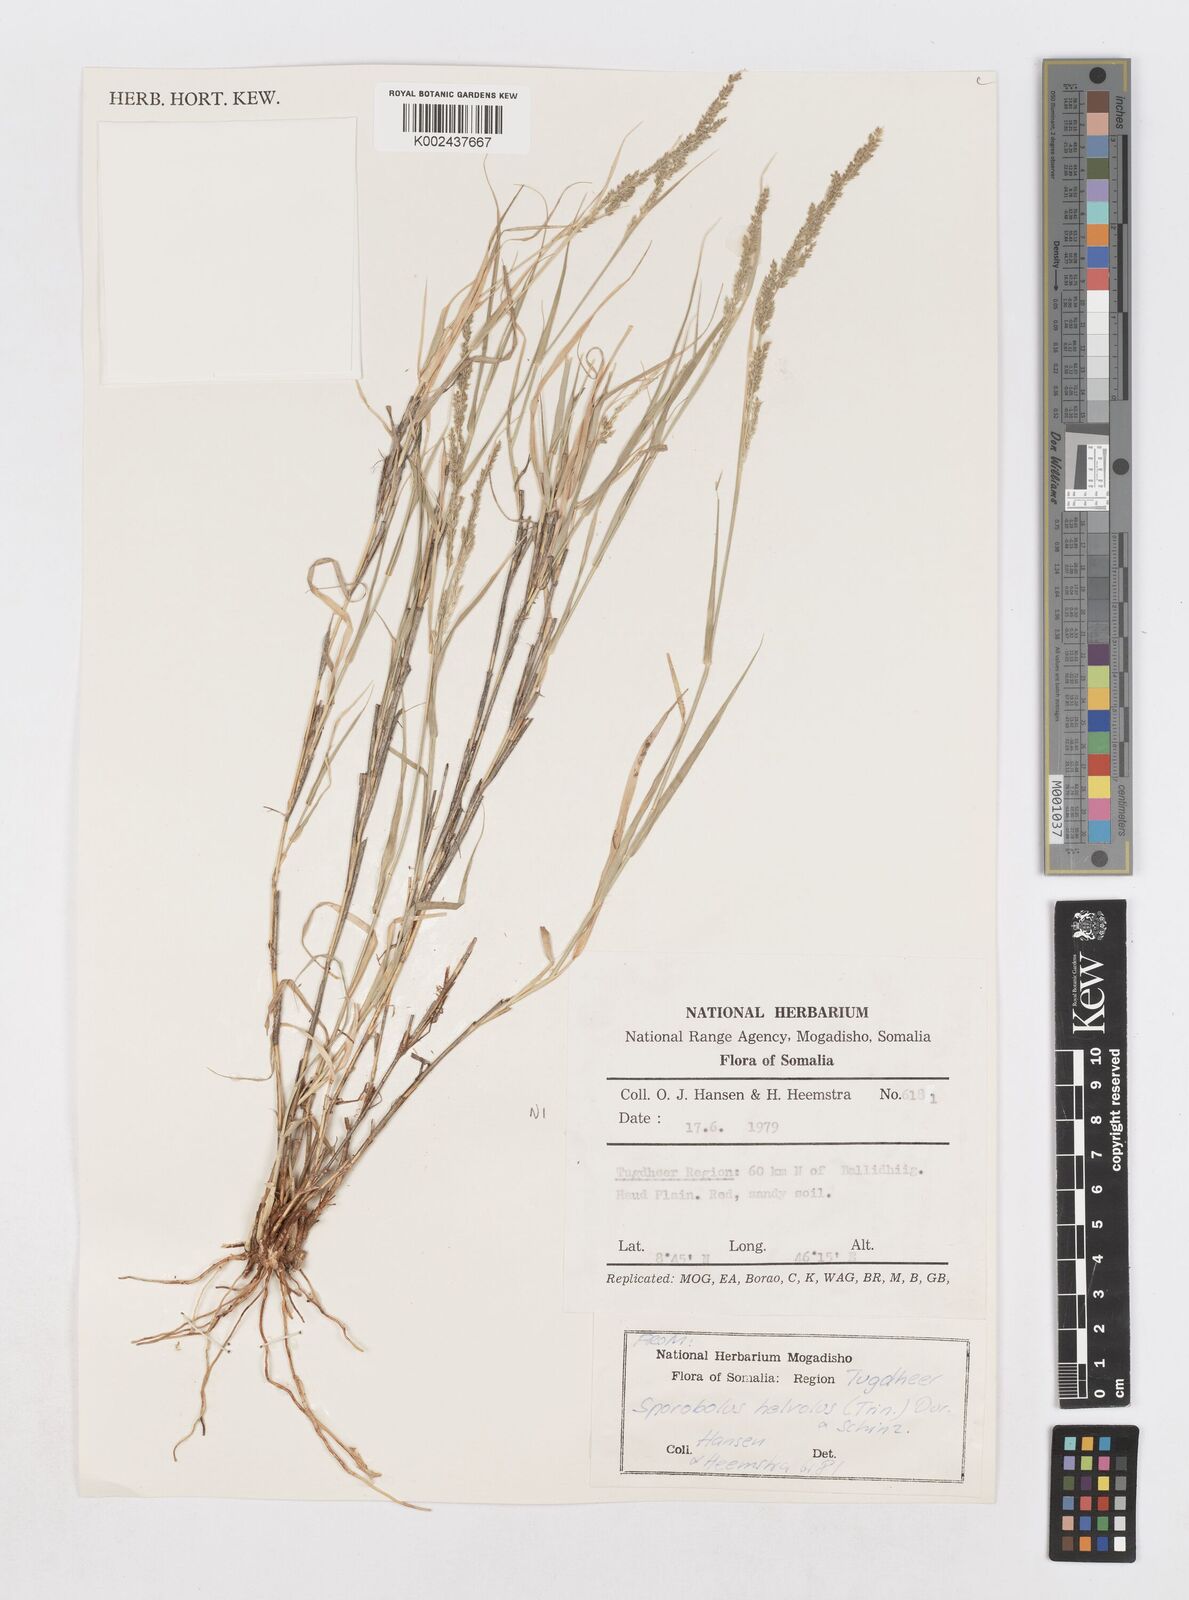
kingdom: Plantae
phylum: Tracheophyta
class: Liliopsida
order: Poales
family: Poaceae
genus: Sporobolus
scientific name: Sporobolus helvolus
